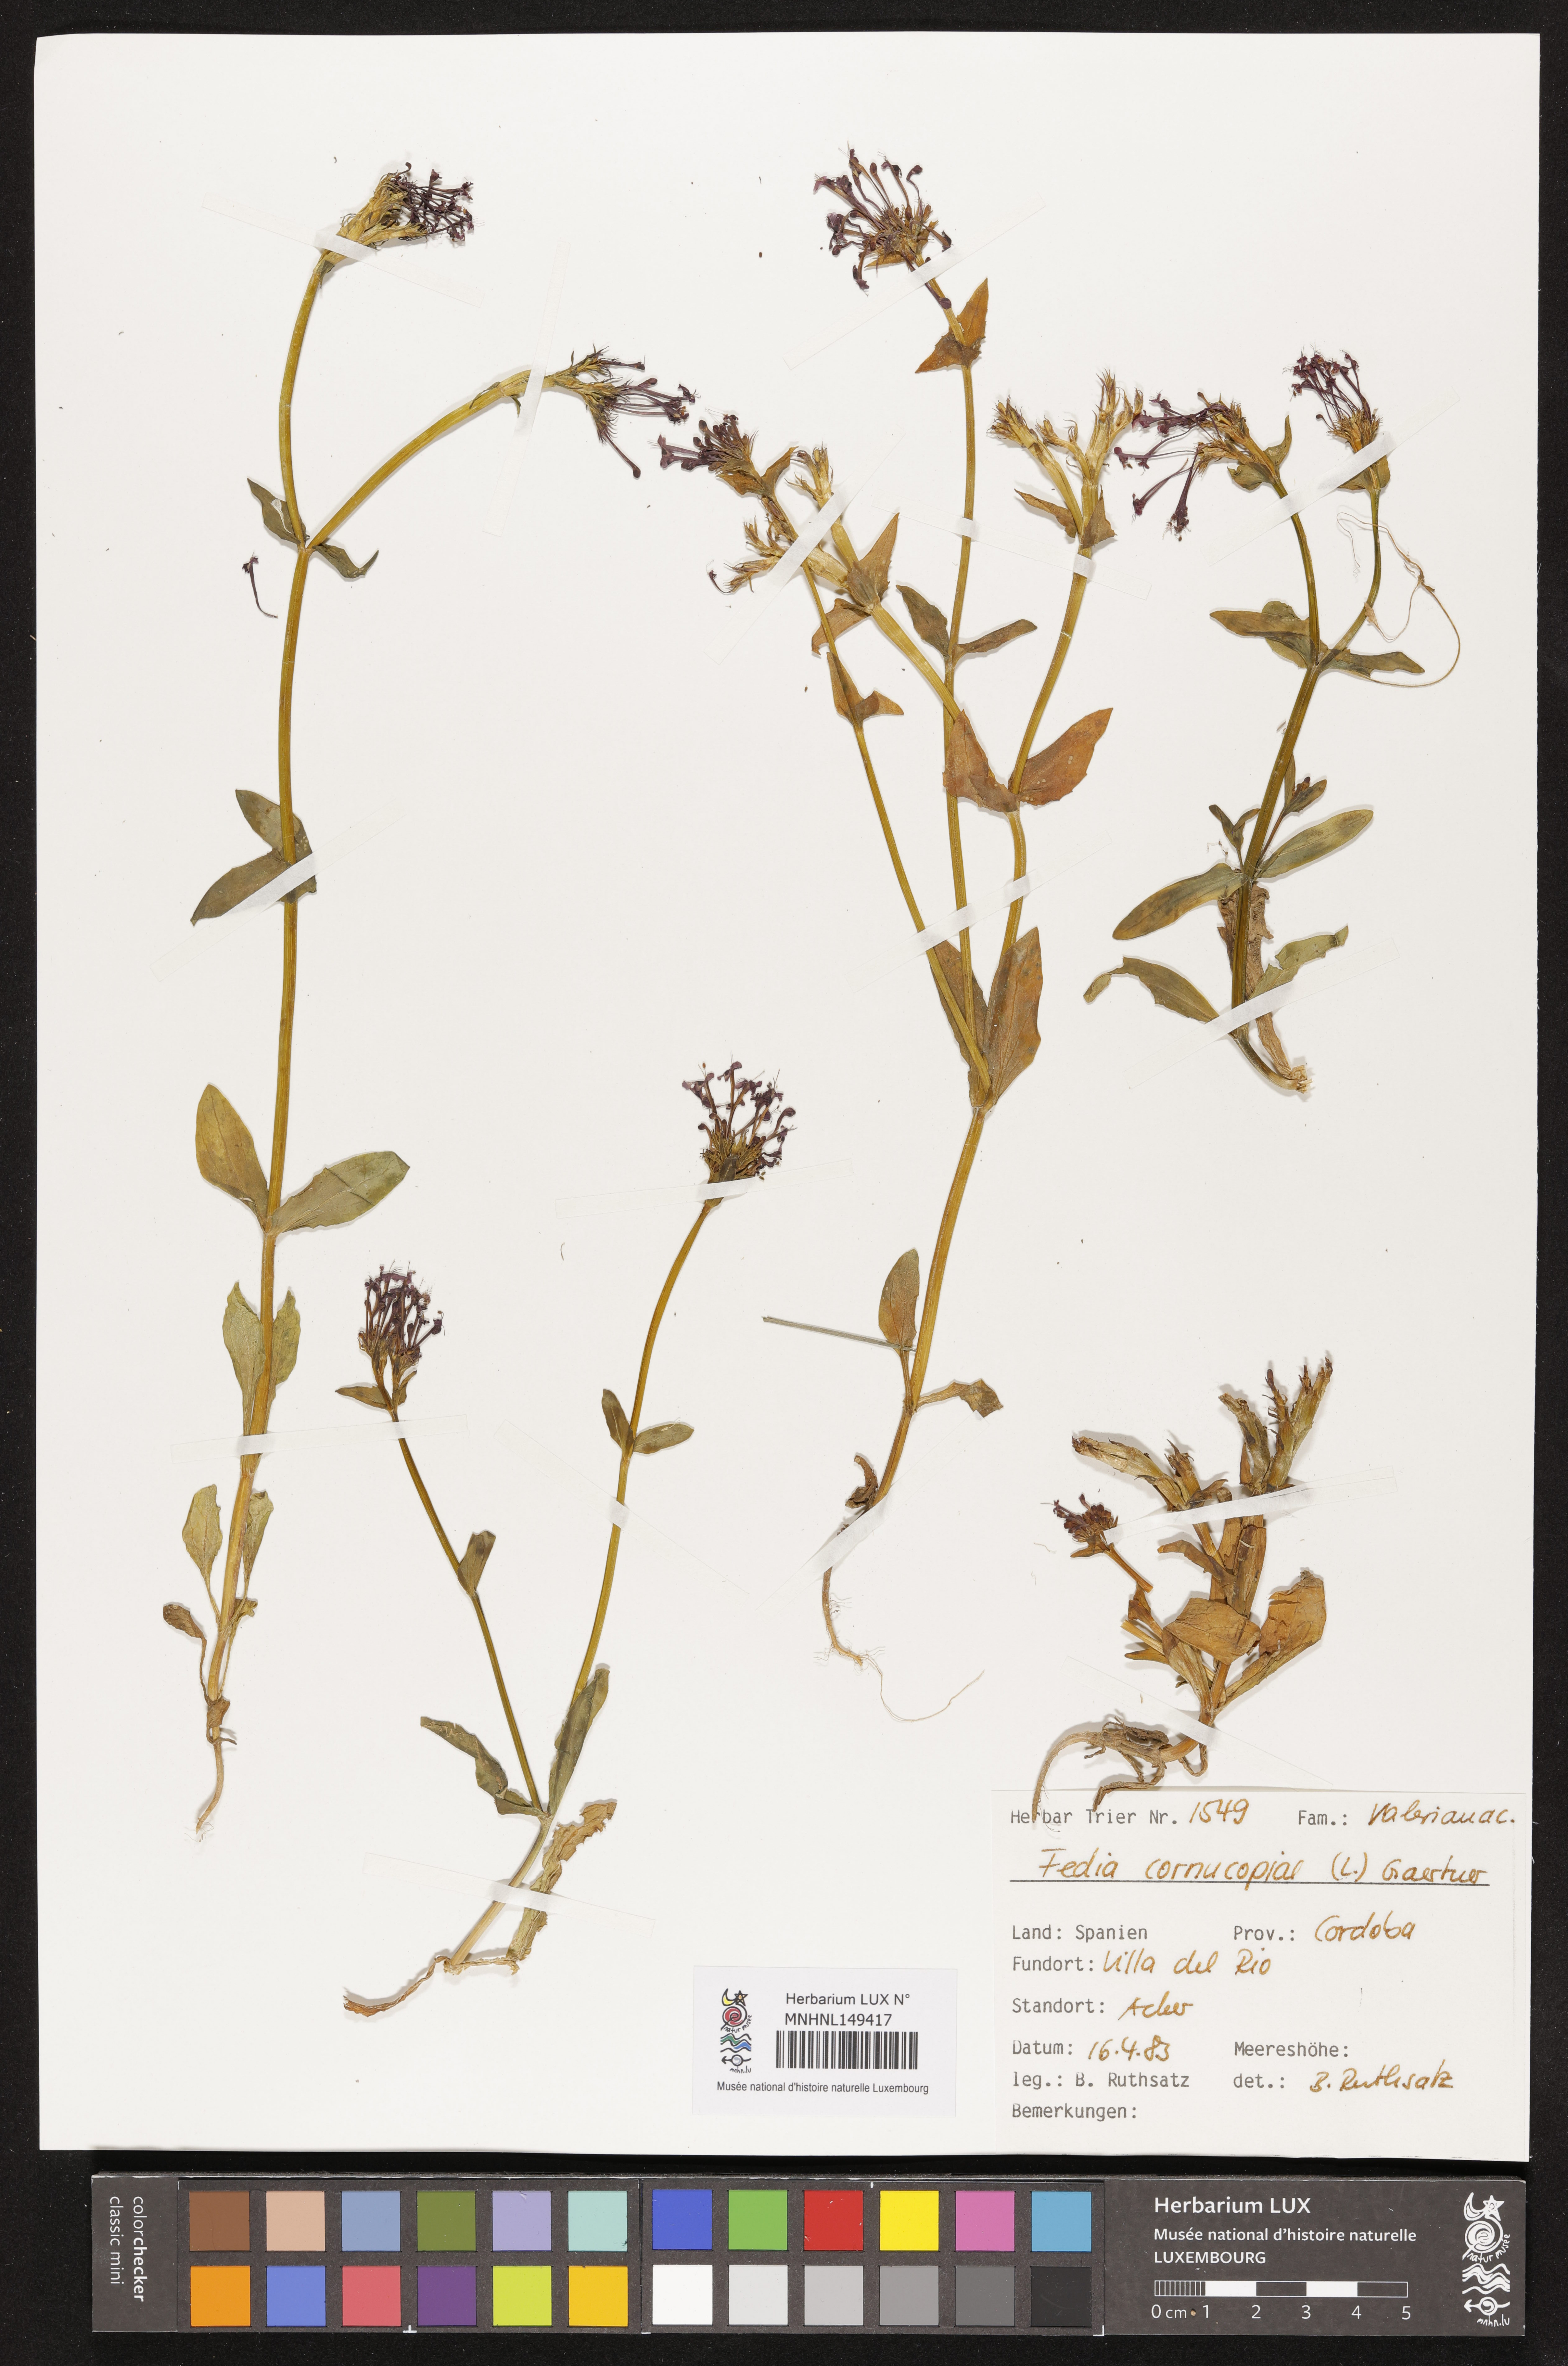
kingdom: Plantae
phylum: Tracheophyta
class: Magnoliopsida
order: Dipsacales
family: Caprifoliaceae
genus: Fedia
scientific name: Fedia cornucopiae
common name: Horn-of-plenty
